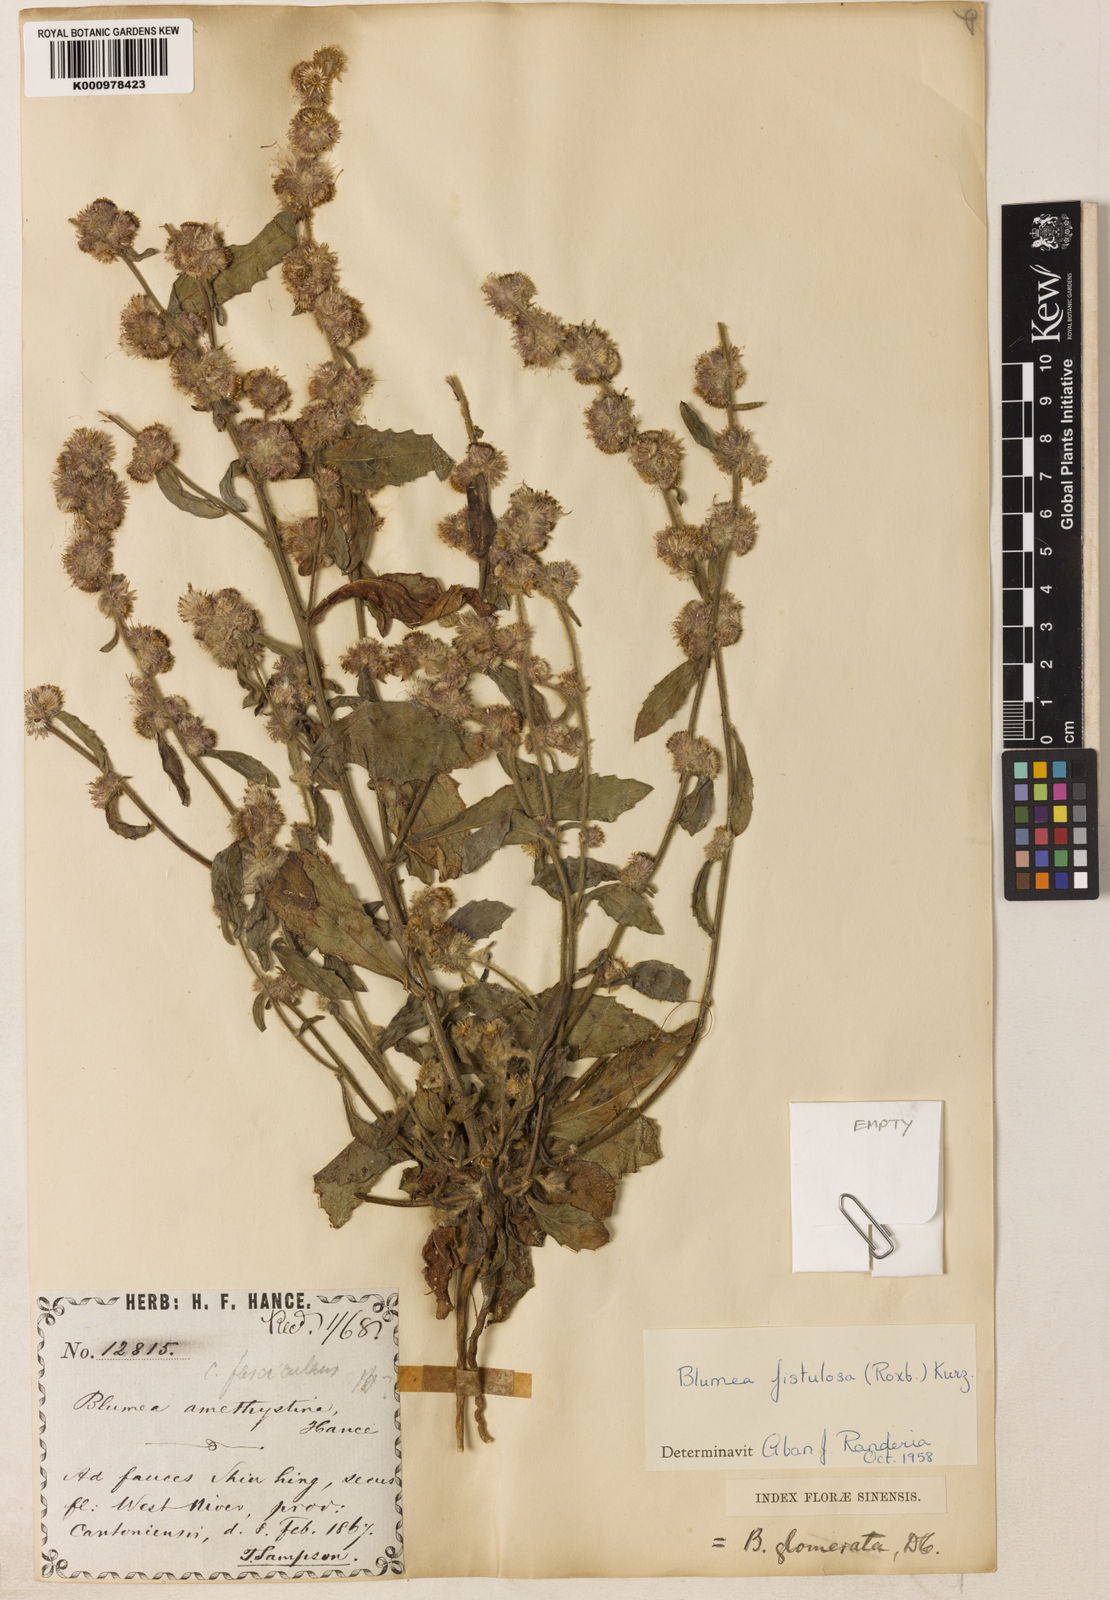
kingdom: Plantae
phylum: Tracheophyta
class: Magnoliopsida
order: Asterales
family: Asteraceae
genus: Blumea
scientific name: Blumea fistulosa
